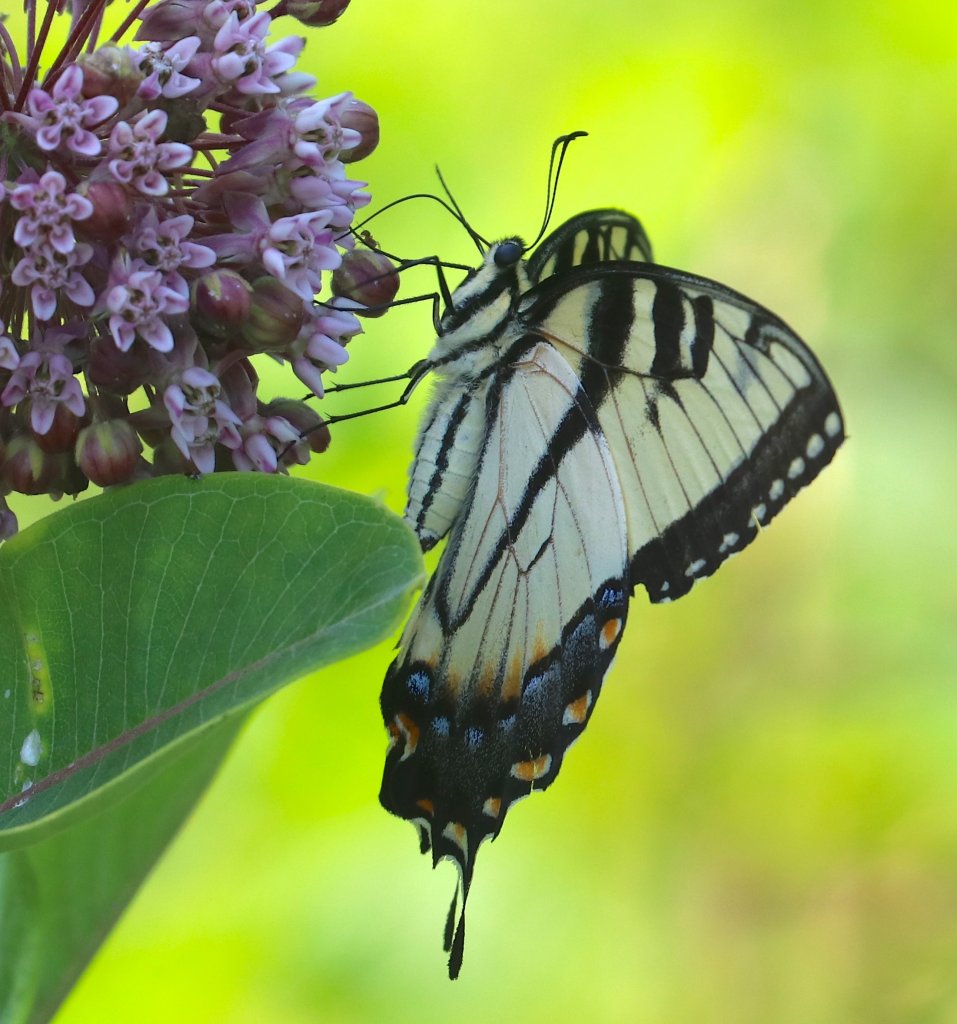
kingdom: Animalia
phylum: Arthropoda
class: Insecta
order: Lepidoptera
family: Papilionidae
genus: Pterourus
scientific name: Pterourus glaucus
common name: Eastern Tiger Swallowtail
